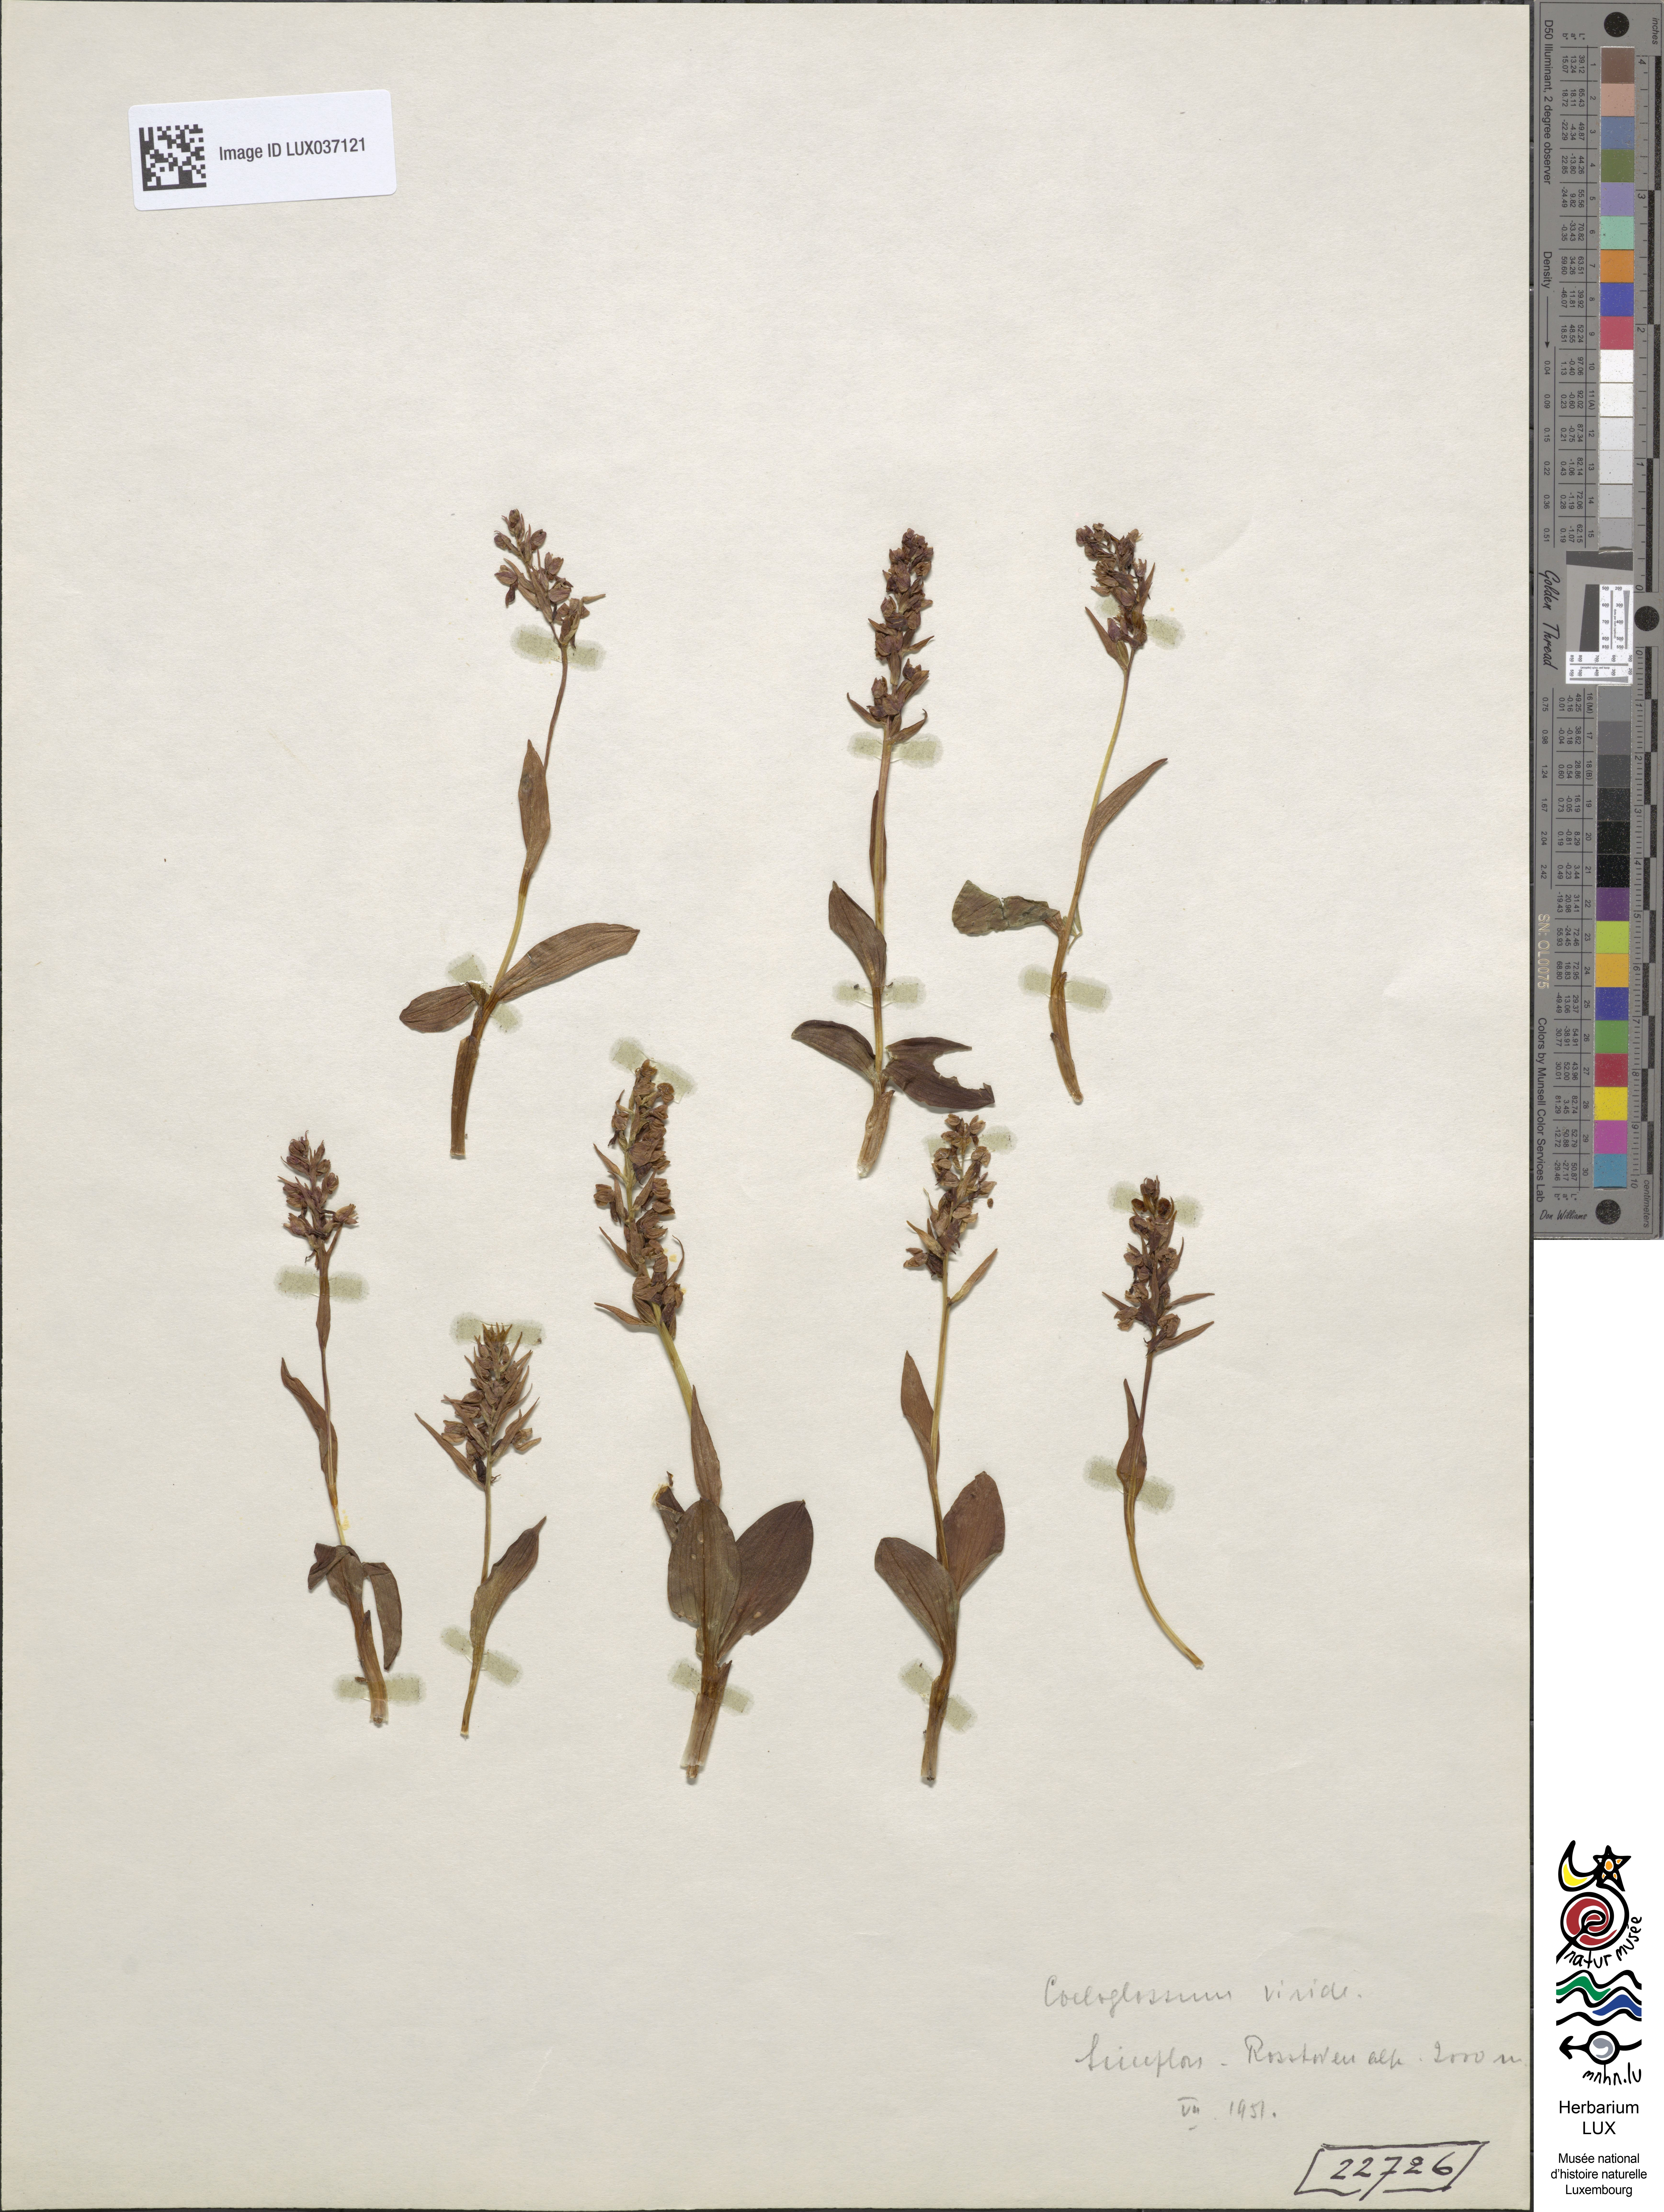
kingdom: Plantae
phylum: Tracheophyta
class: Liliopsida
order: Asparagales
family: Orchidaceae
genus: Dactylorhiza
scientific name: Dactylorhiza viridis
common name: Longbract frog orchid
